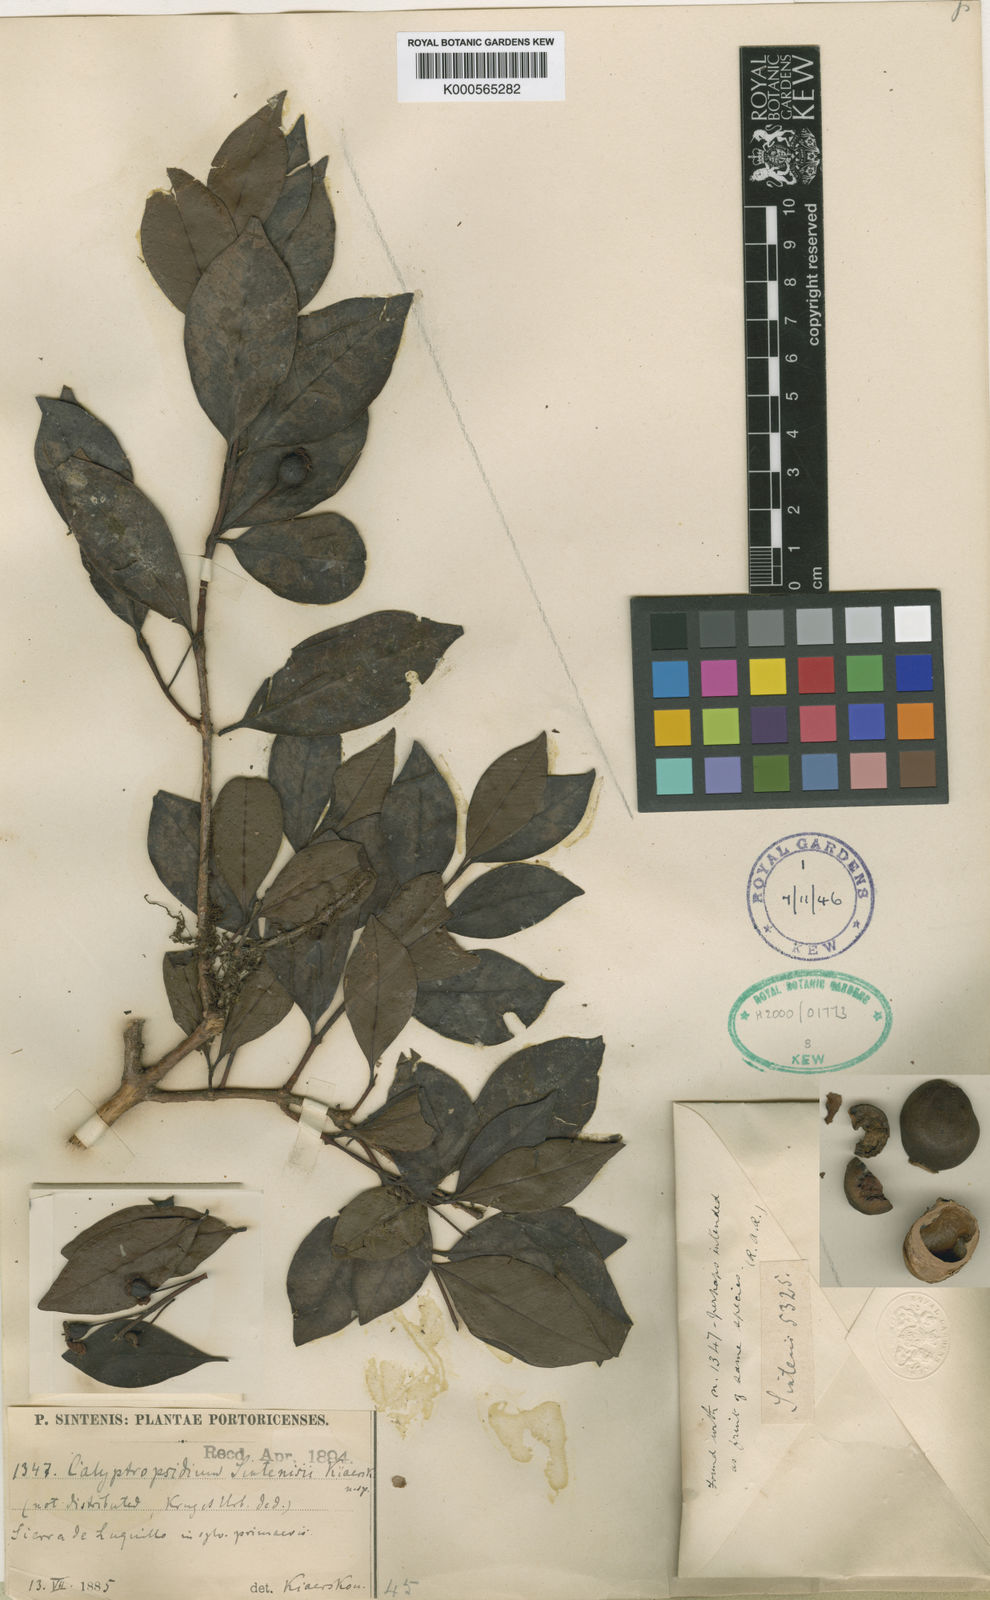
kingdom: Plantae
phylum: Tracheophyta
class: Magnoliopsida
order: Myrtales
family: Myrtaceae
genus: Psidium
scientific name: Psidium sintenisii
